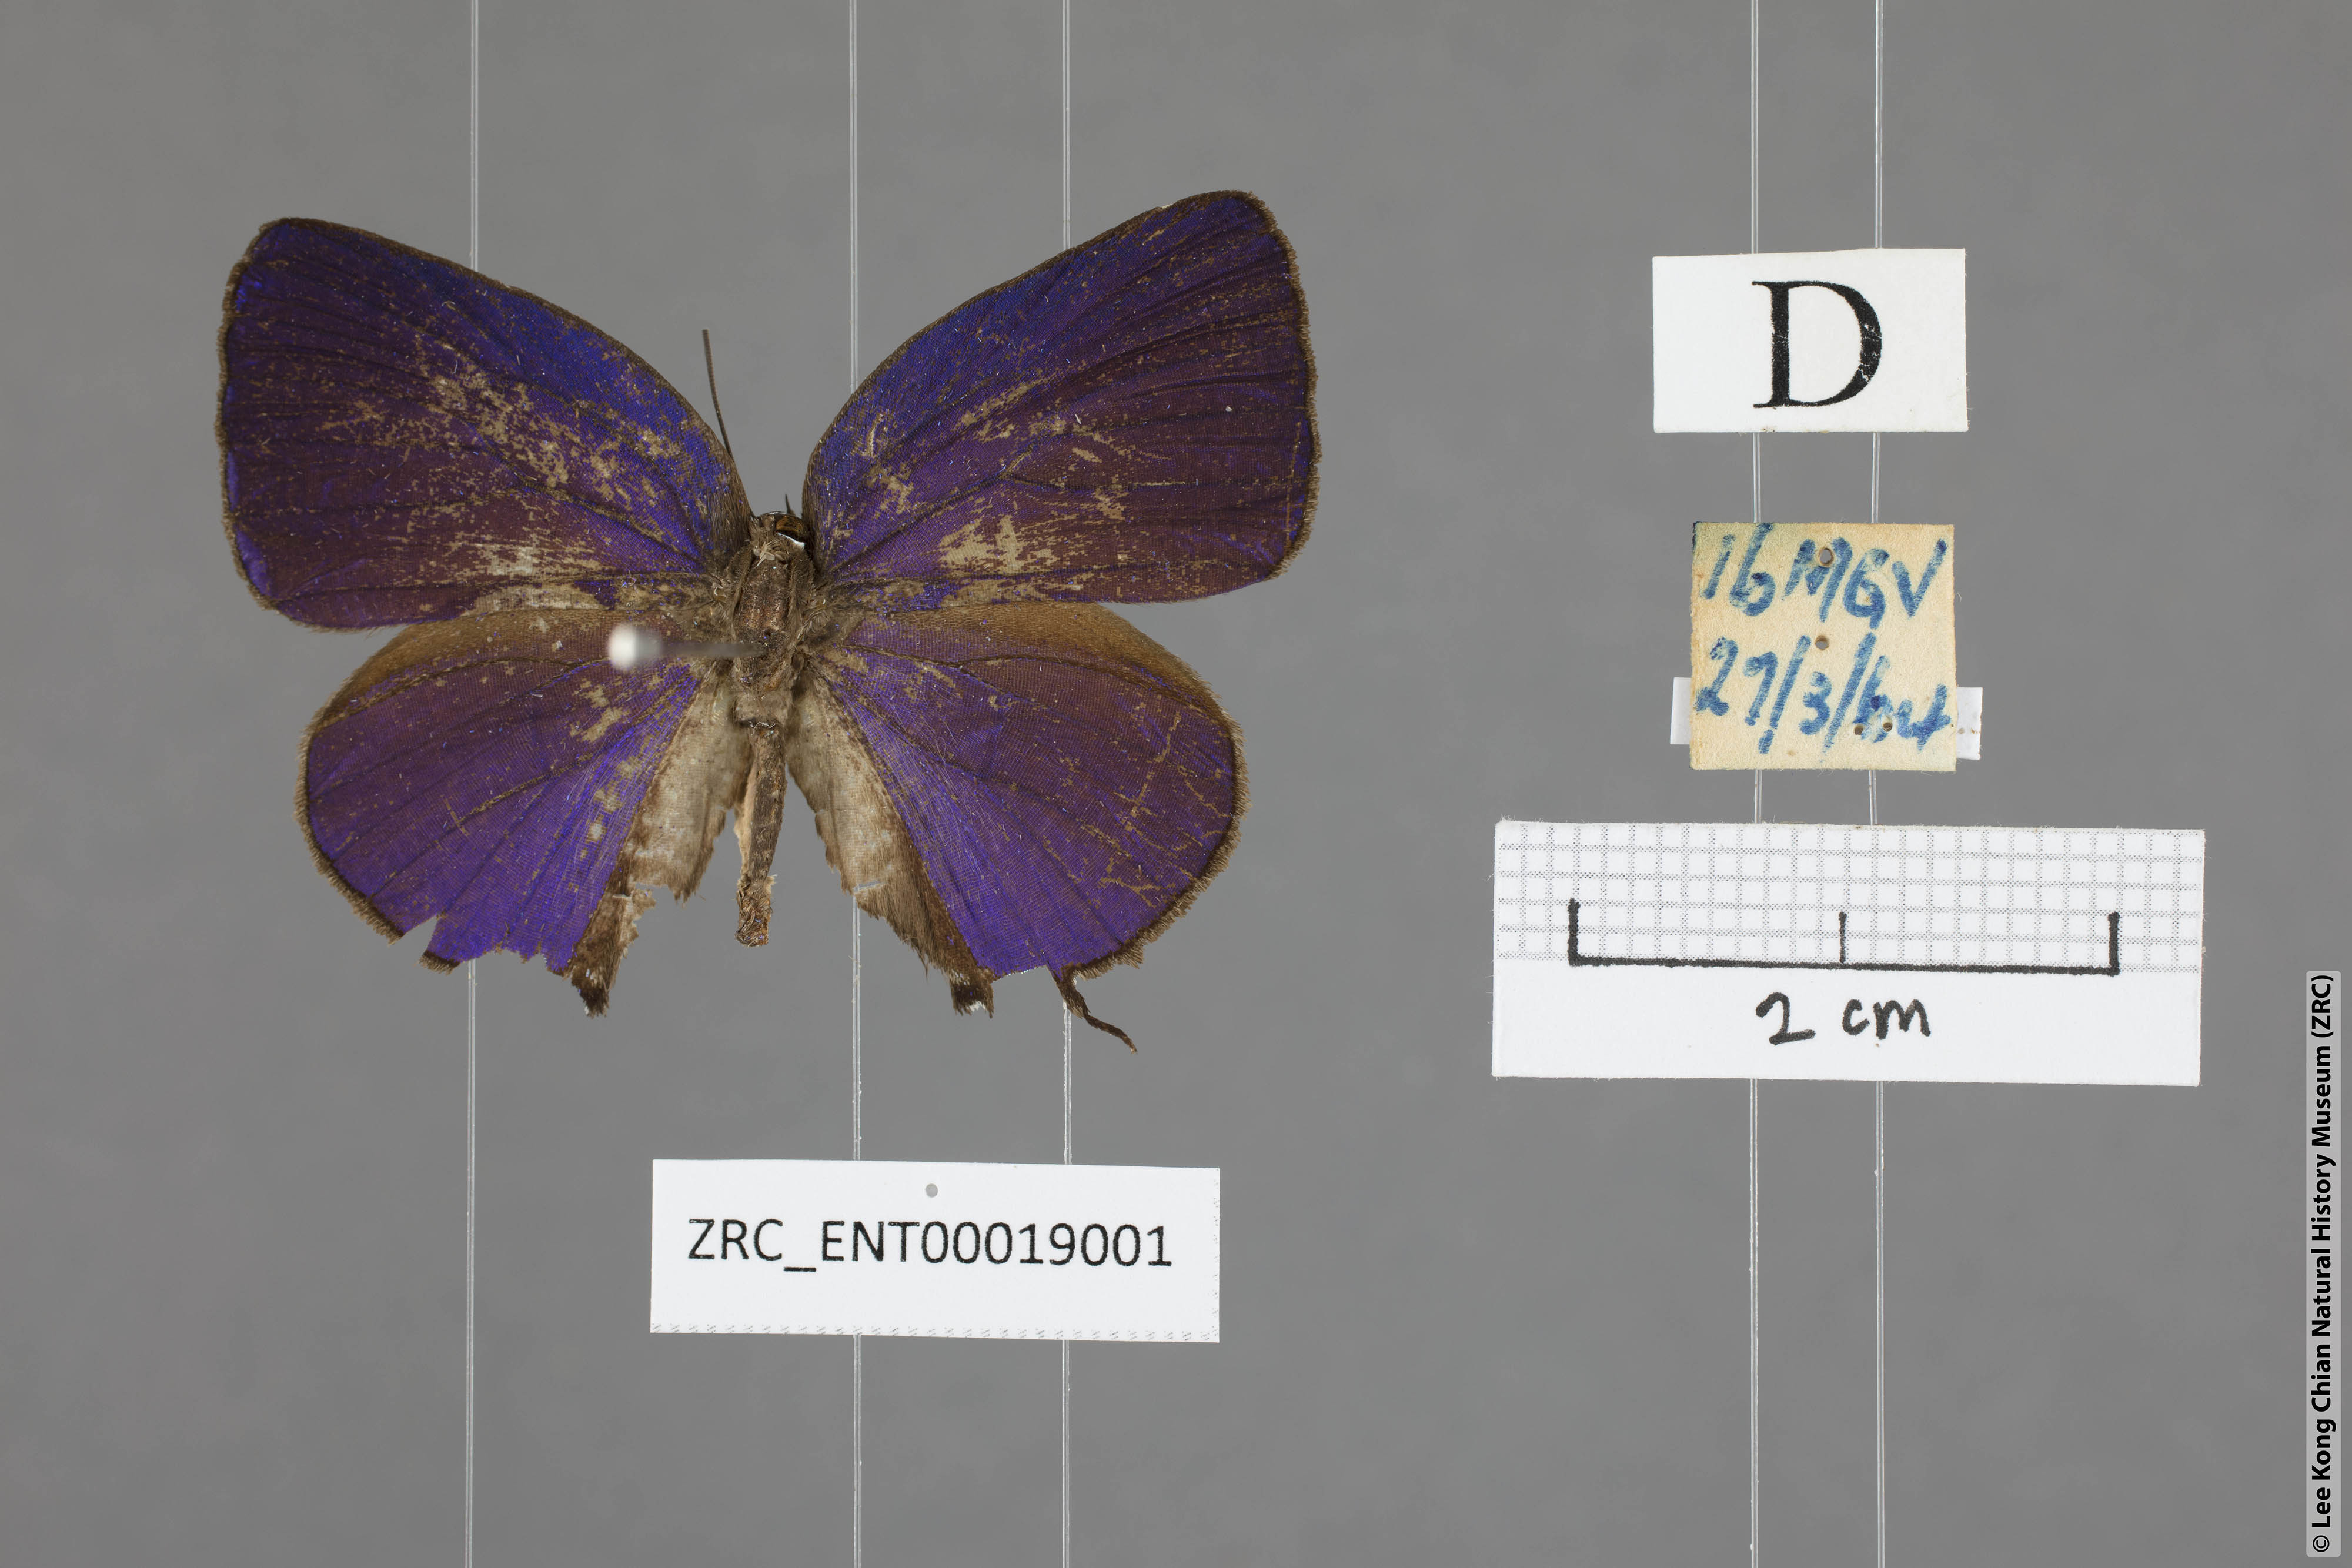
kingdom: Animalia
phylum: Arthropoda
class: Insecta
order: Lepidoptera
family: Lycaenidae
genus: Arhopala
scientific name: Arhopala aedias
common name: Large metallic oakblue
